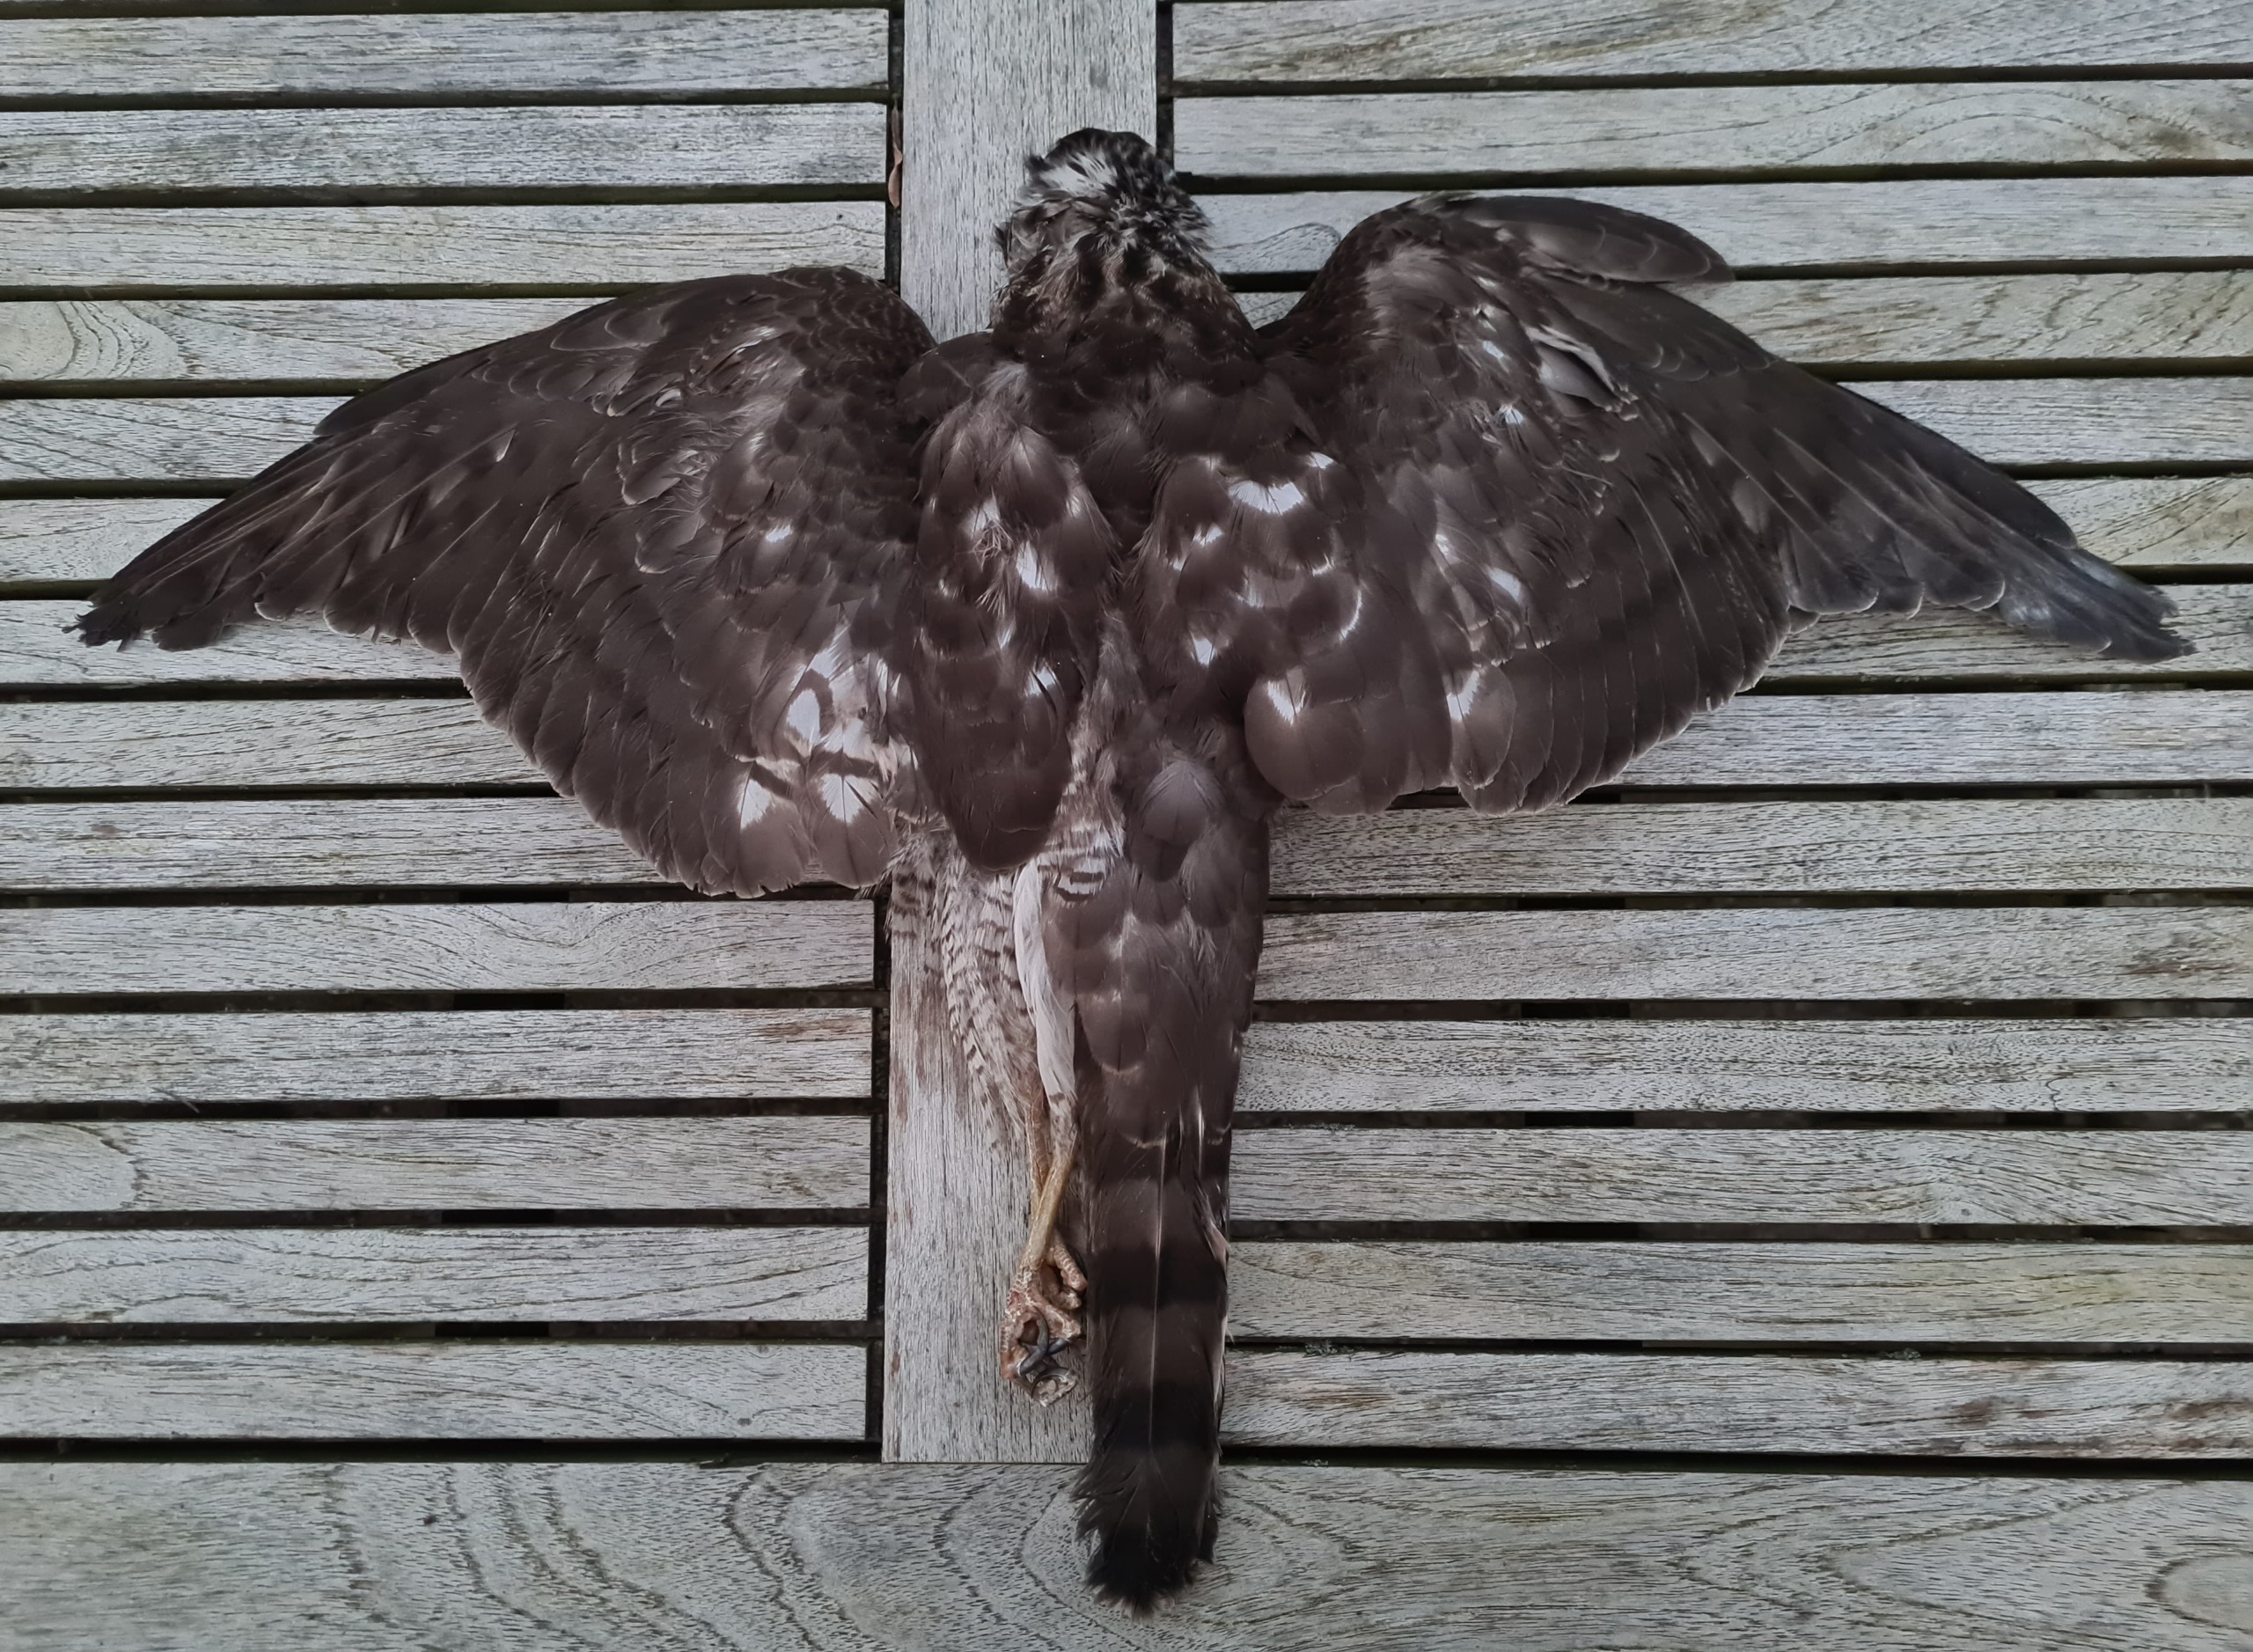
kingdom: Animalia
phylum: Chordata
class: Aves
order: Accipitriformes
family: Accipitridae
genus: Accipiter
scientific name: Accipiter nisus
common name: Spurvehøg
